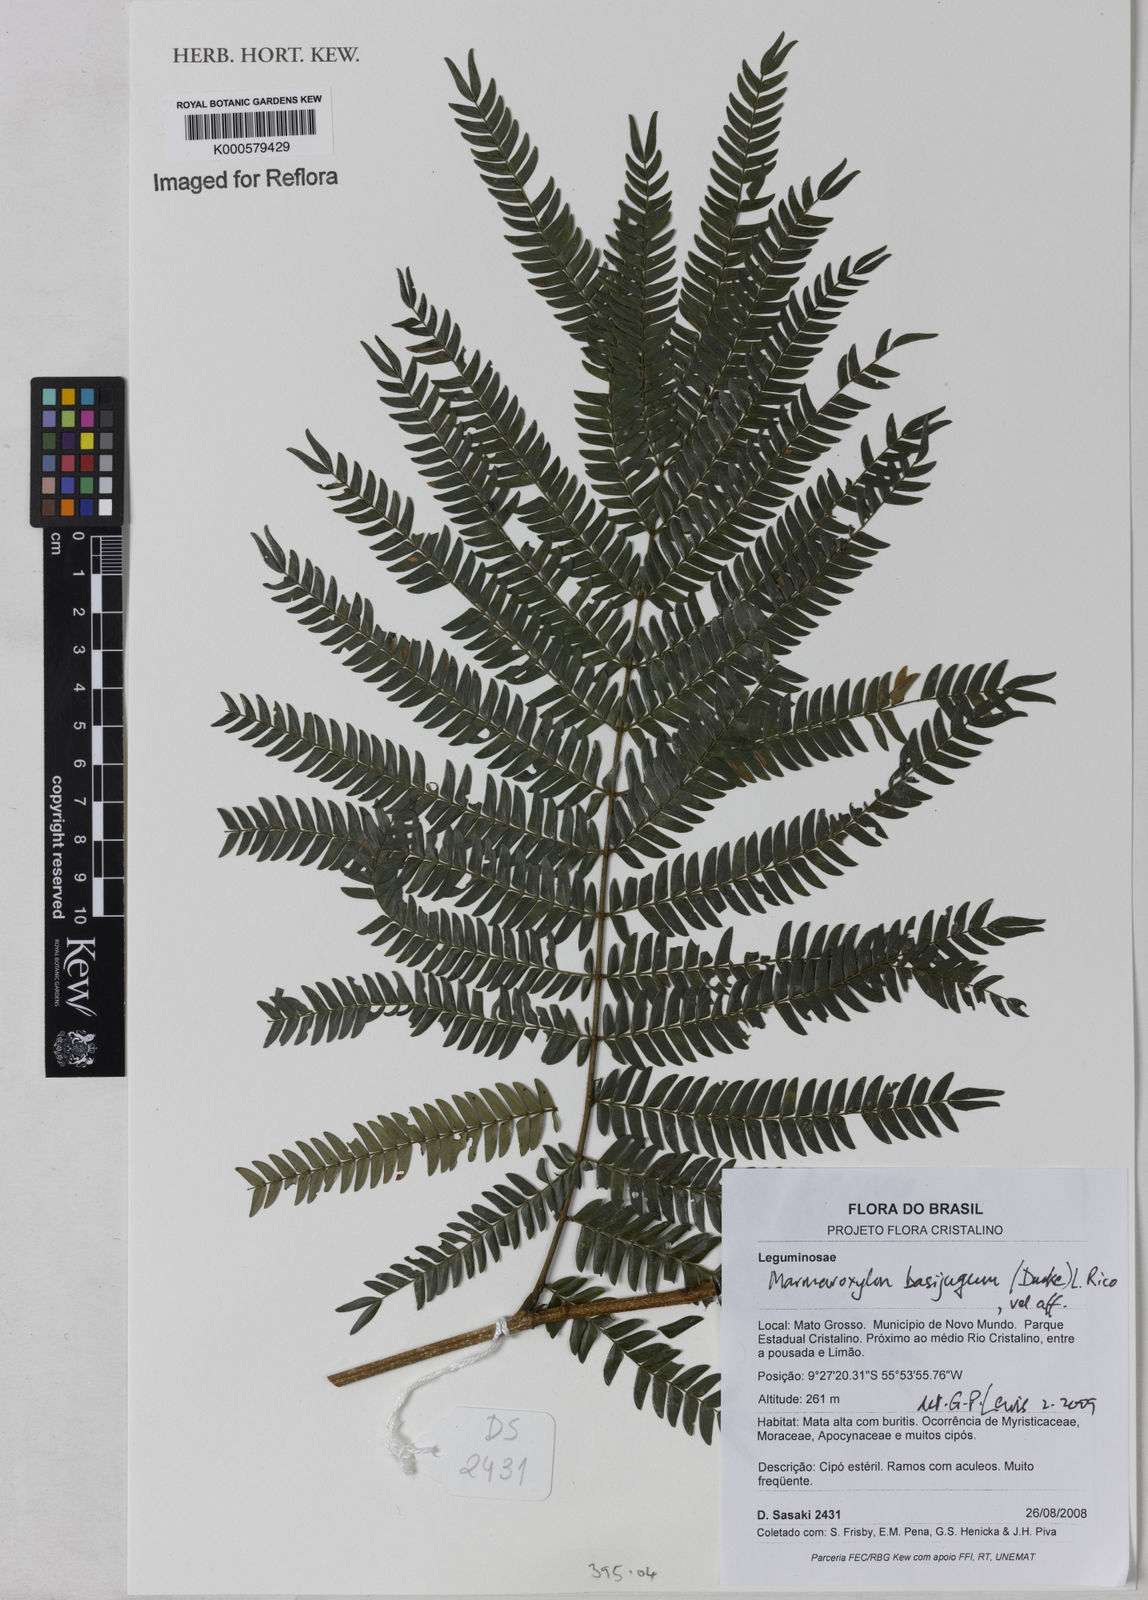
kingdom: Plantae
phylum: Tracheophyta
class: Magnoliopsida
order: Fabales
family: Fabaceae
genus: Zygia
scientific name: Zygia basijuga
